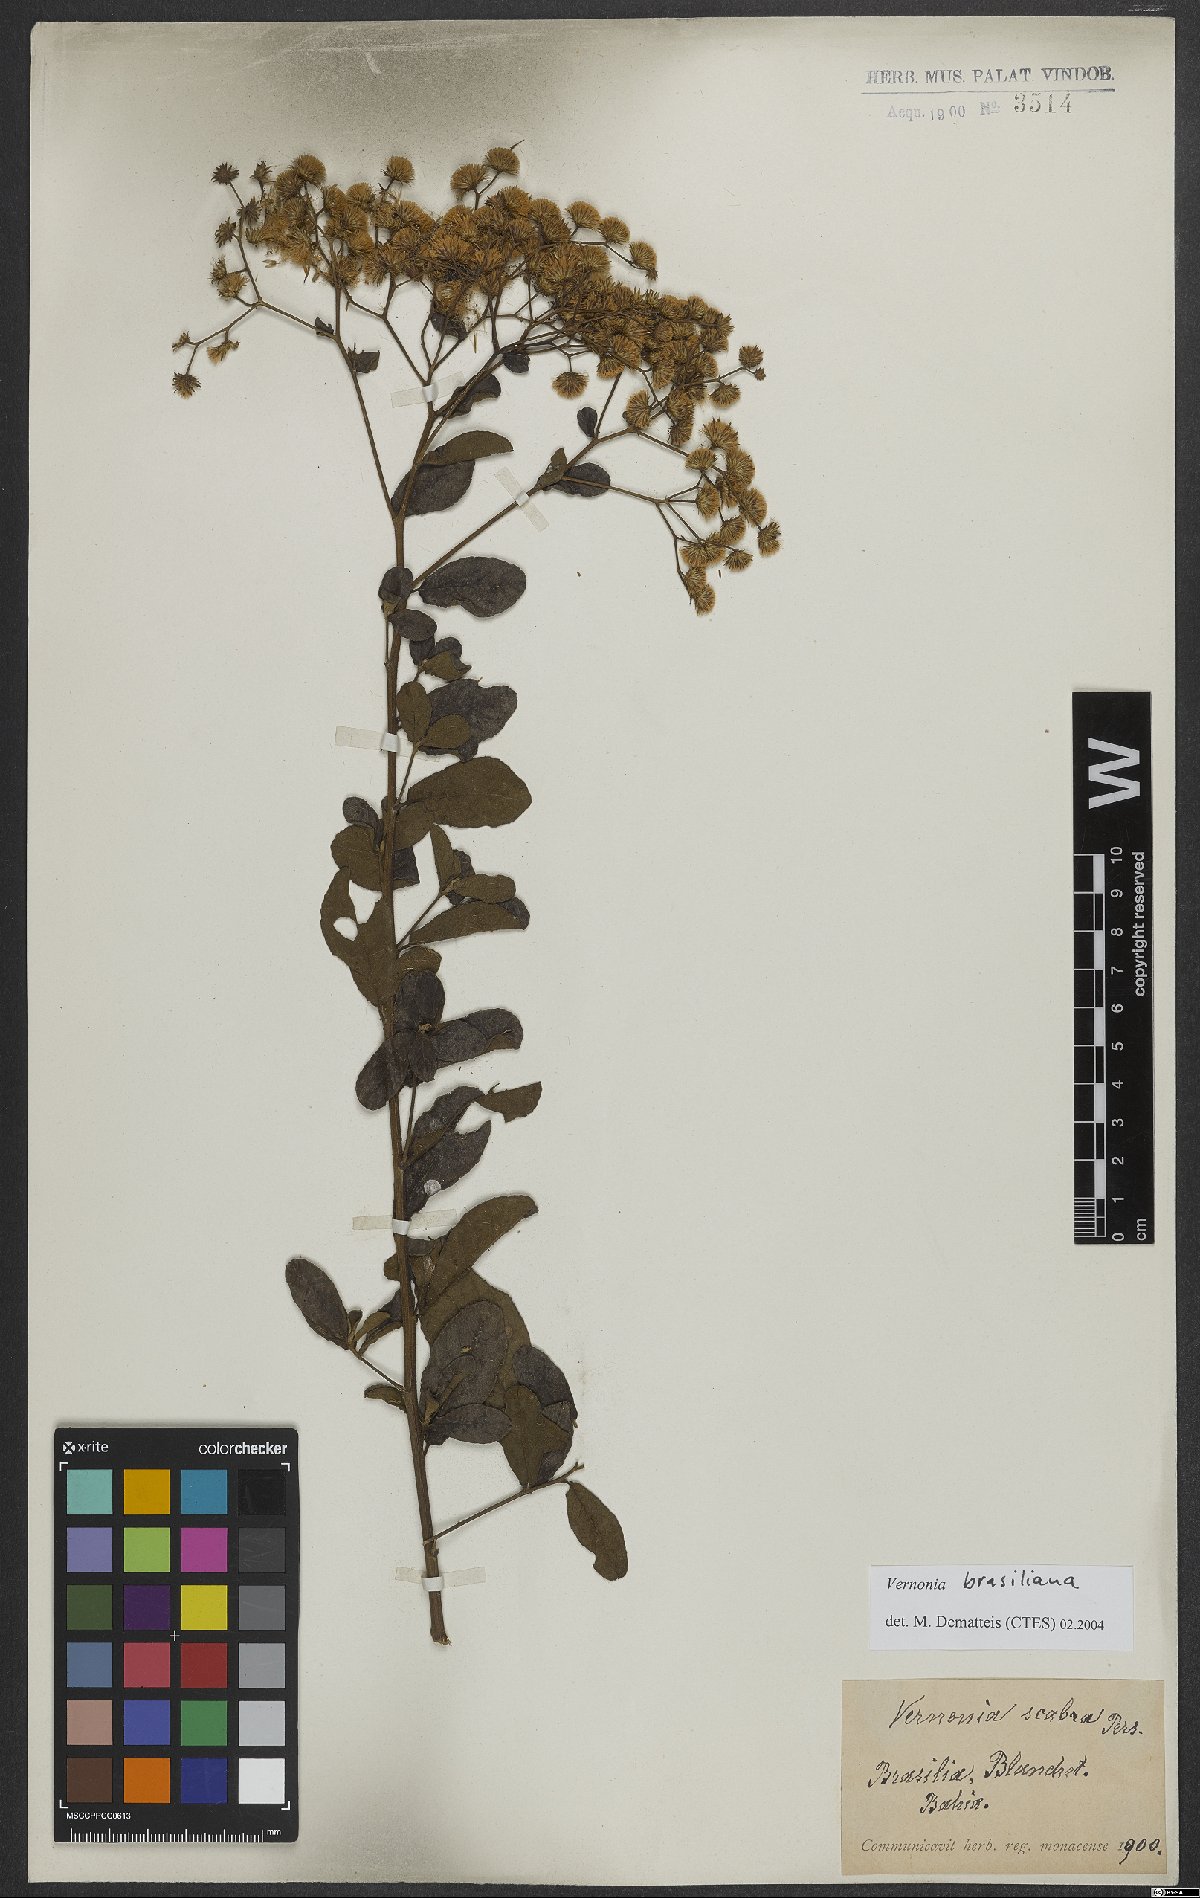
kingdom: Plantae
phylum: Tracheophyta
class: Magnoliopsida
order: Asterales
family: Asteraceae
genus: Vernonanthura
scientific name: Vernonanthura brasiliana
